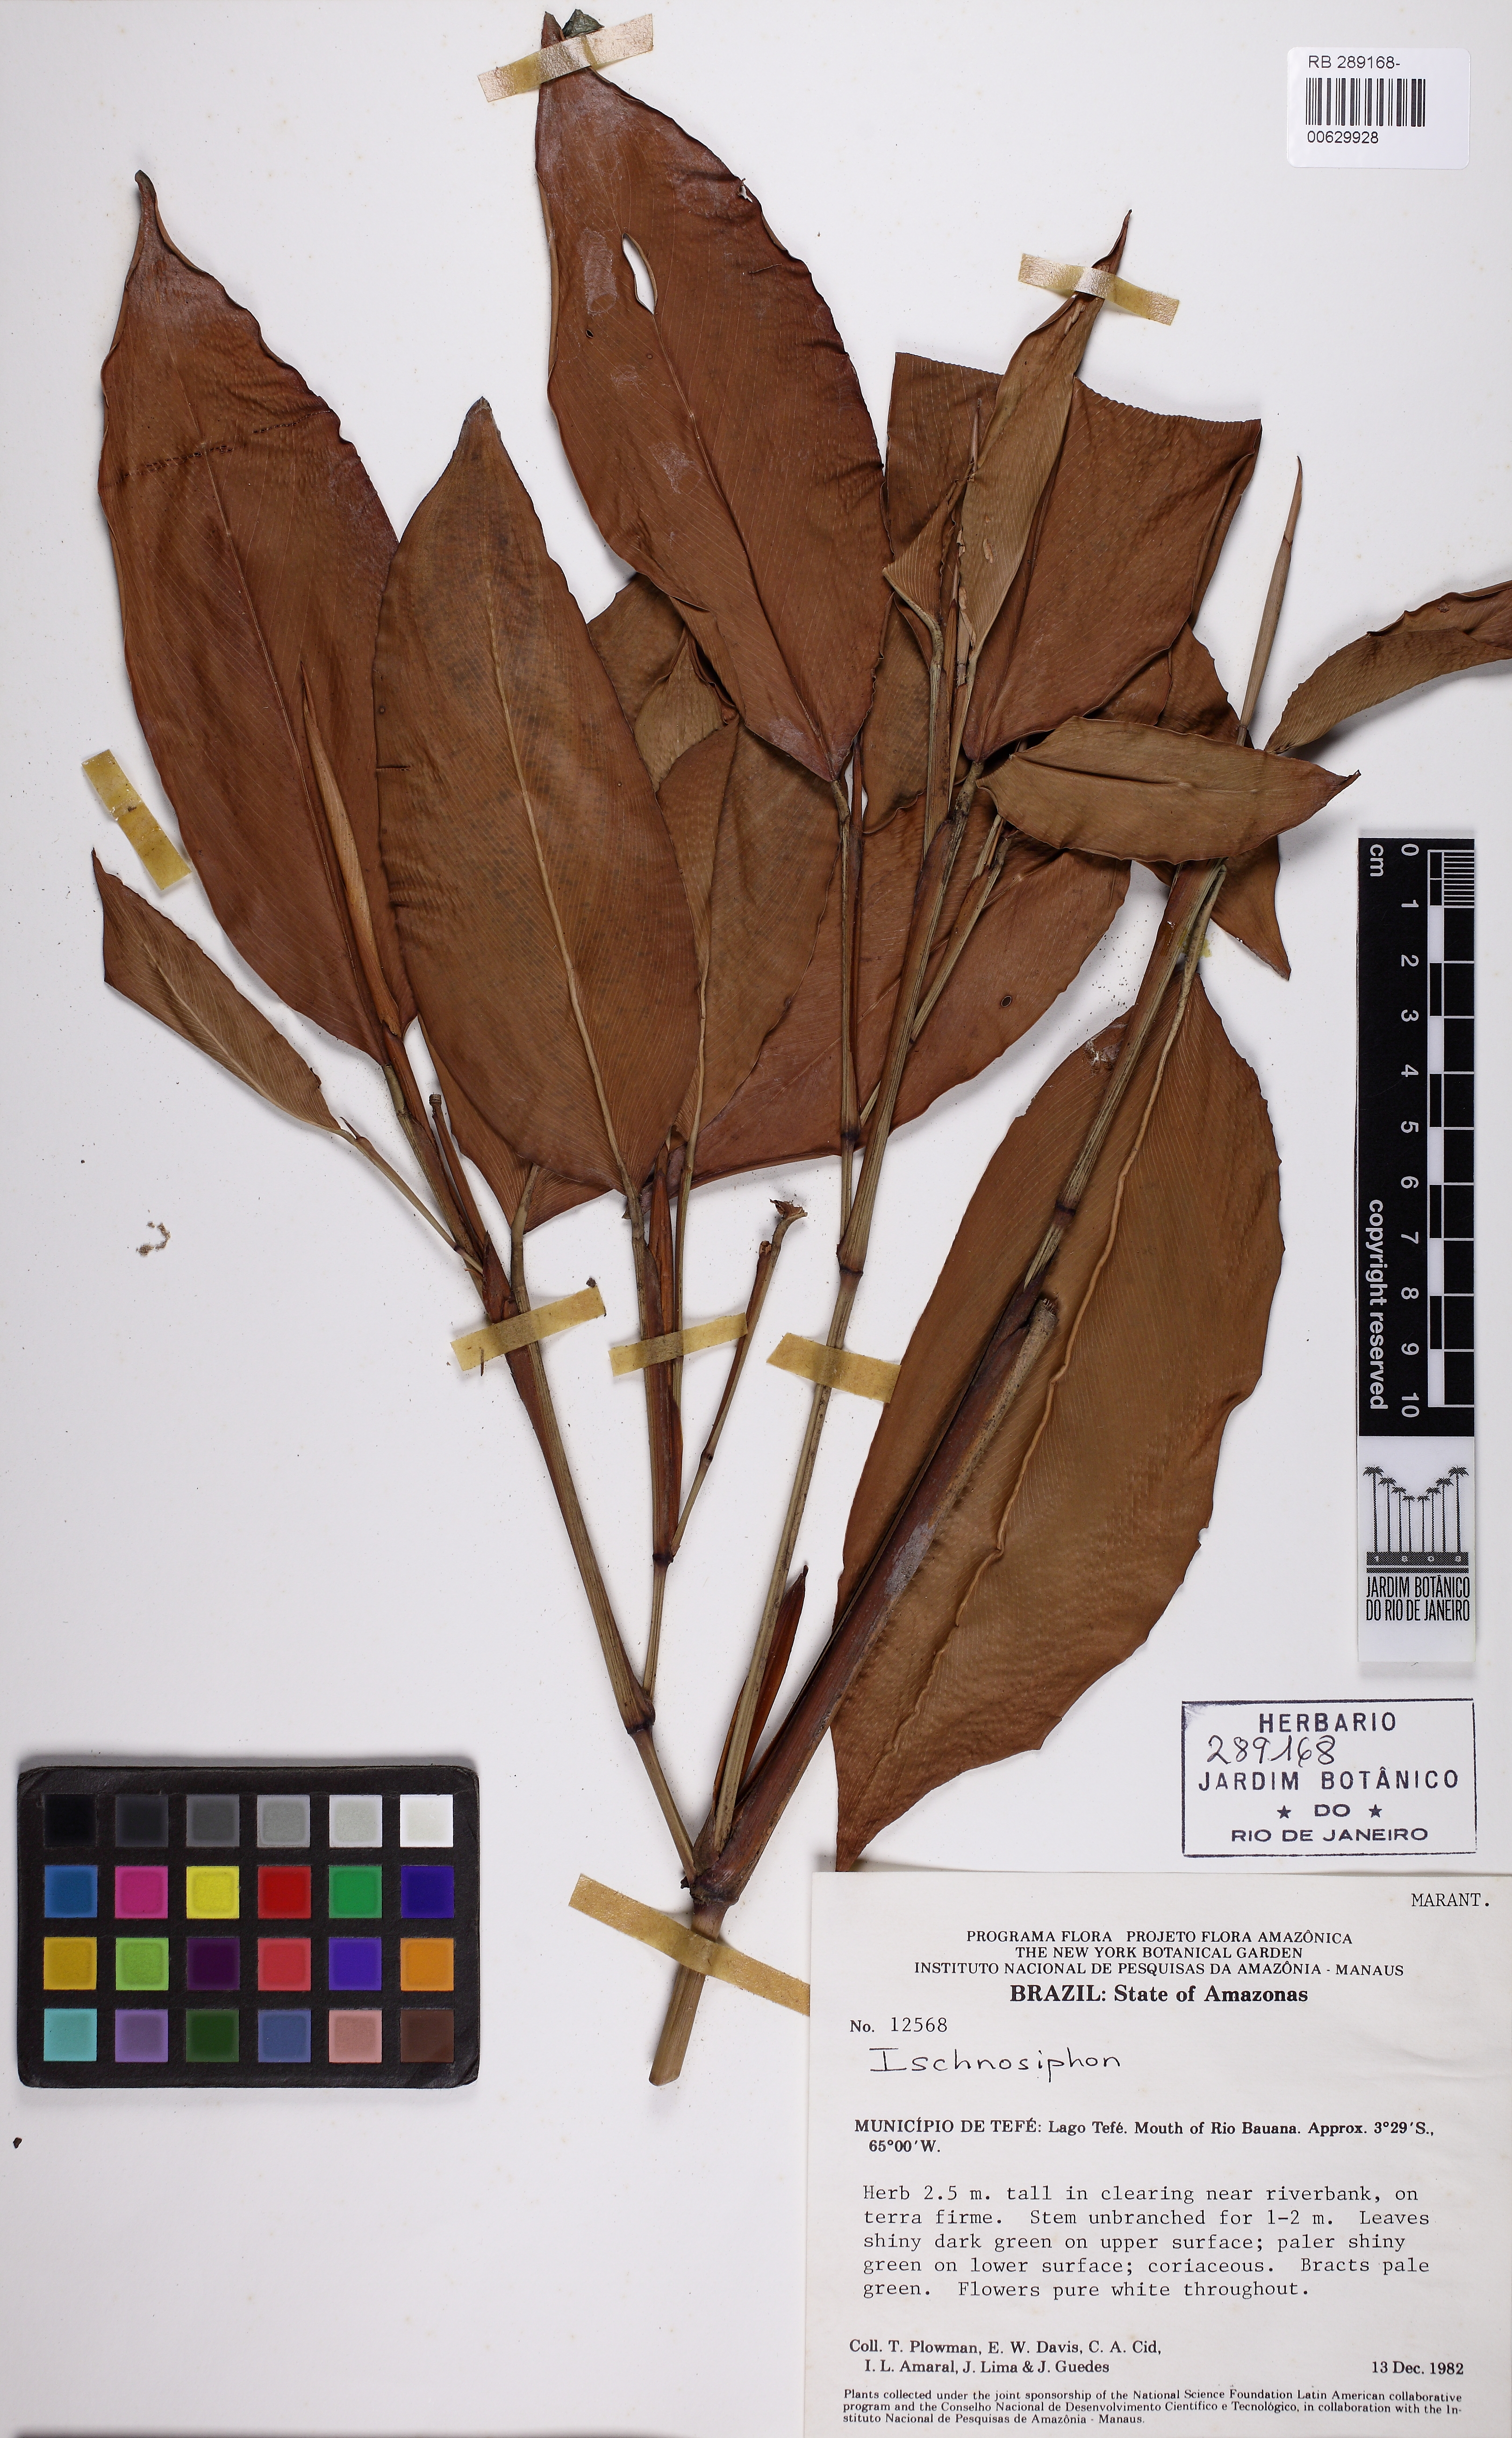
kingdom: Plantae
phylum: Tracheophyta
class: Liliopsida
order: Zingiberales
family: Marantaceae
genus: Ischnosiphon
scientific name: Ischnosiphon
